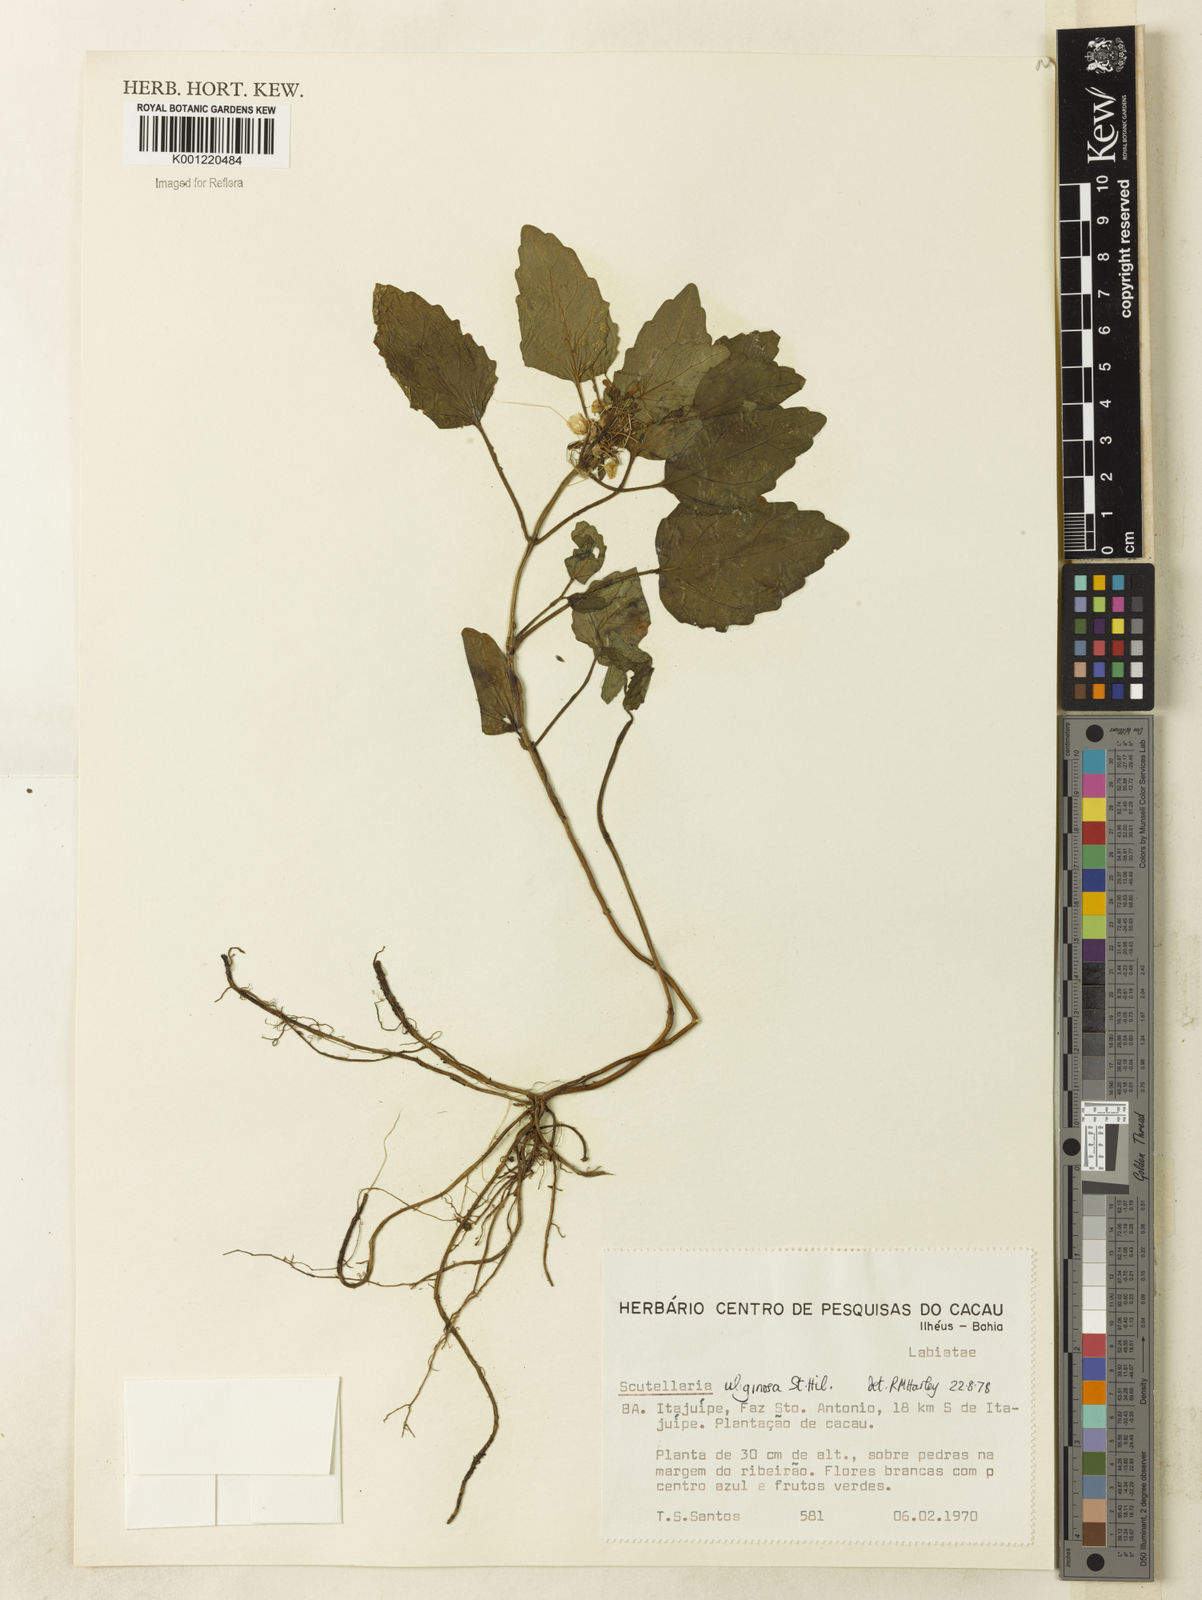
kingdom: Plantae
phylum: Tracheophyta
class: Magnoliopsida
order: Lamiales
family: Lamiaceae
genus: Scutellaria
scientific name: Scutellaria uliginosa
